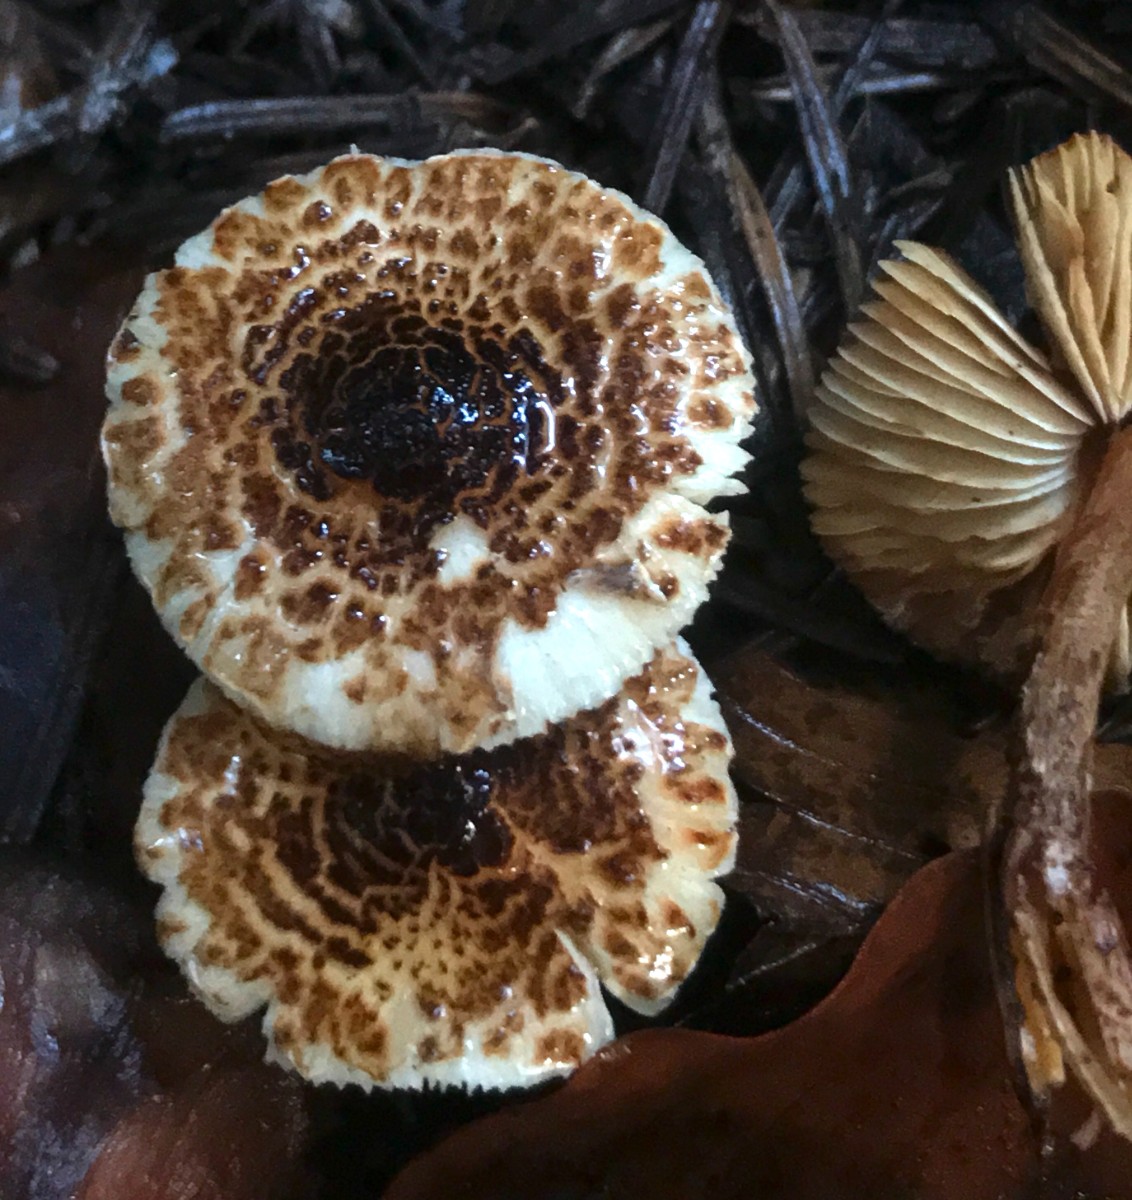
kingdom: Fungi
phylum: Basidiomycota
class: Agaricomycetes
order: Agaricales
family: Agaricaceae
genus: Lepiota
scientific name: Lepiota castanea
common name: kastaniebrun parasolhat
